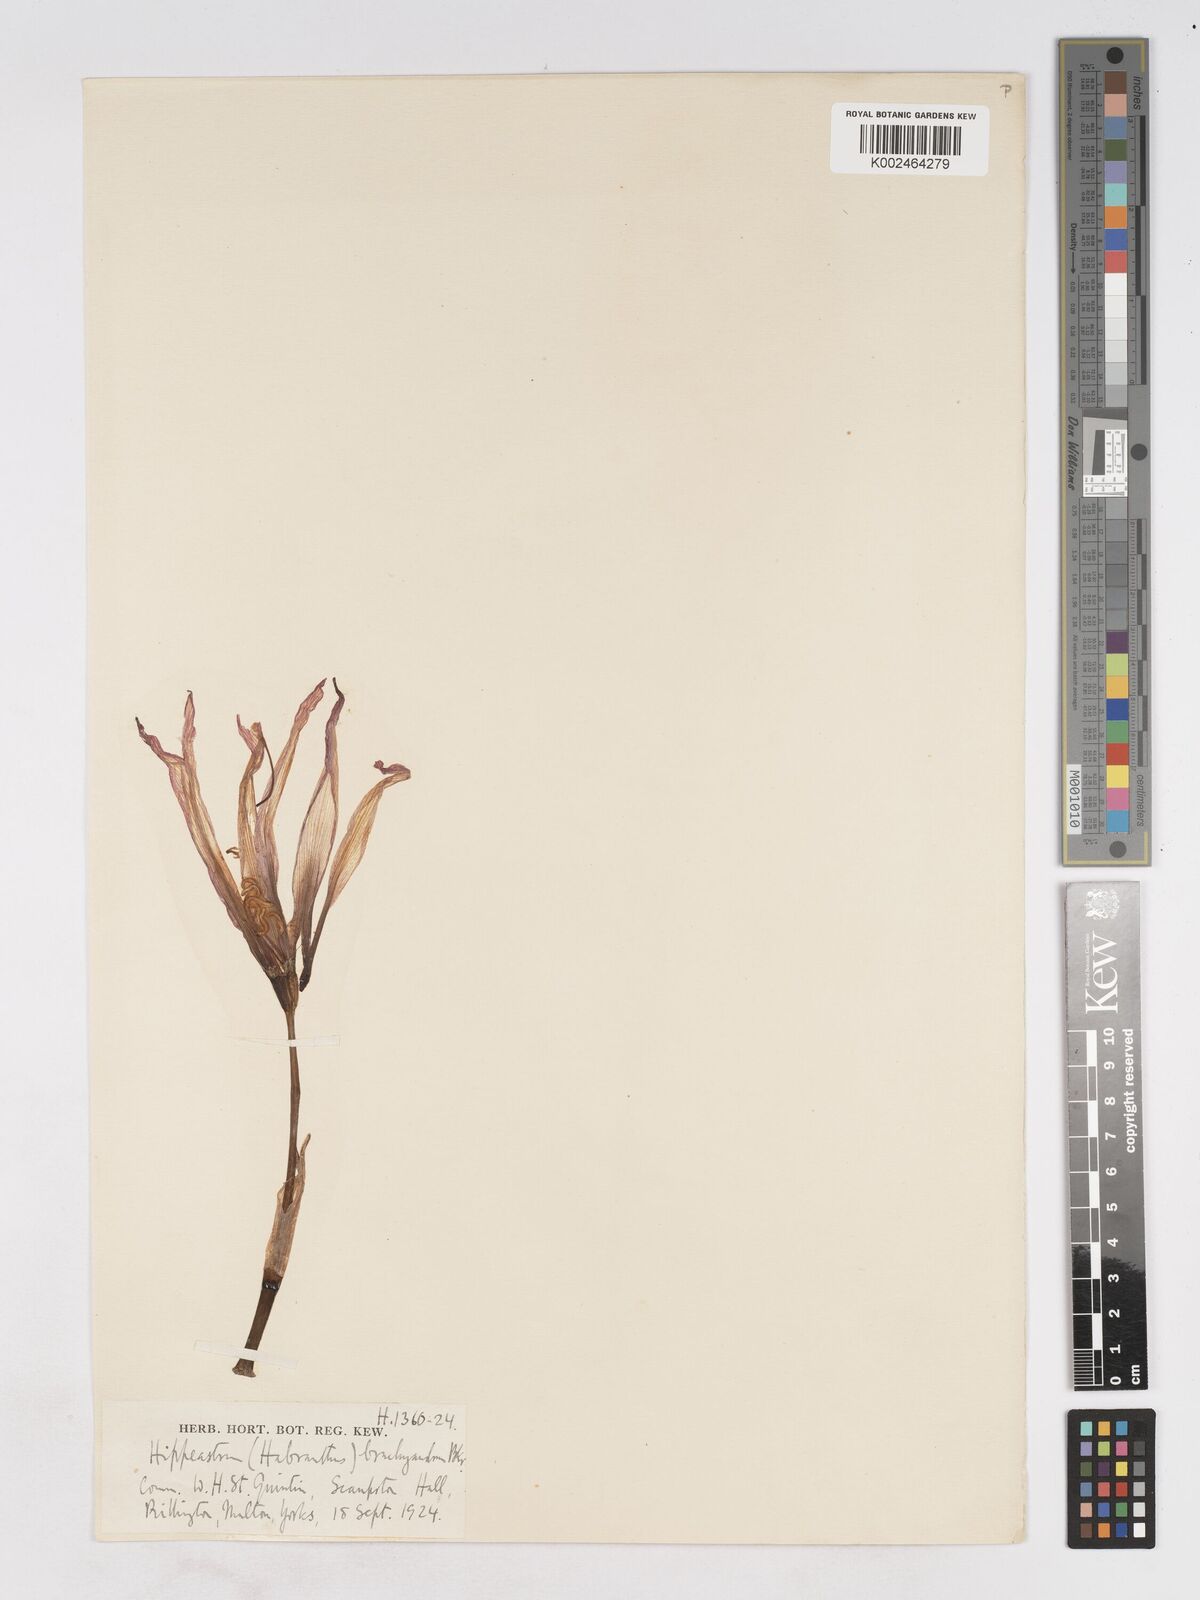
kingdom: Plantae
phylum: Tracheophyta
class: Liliopsida
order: Asparagales
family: Amaryllidaceae
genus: Zephyranthes
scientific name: Zephyranthes brachyandra
